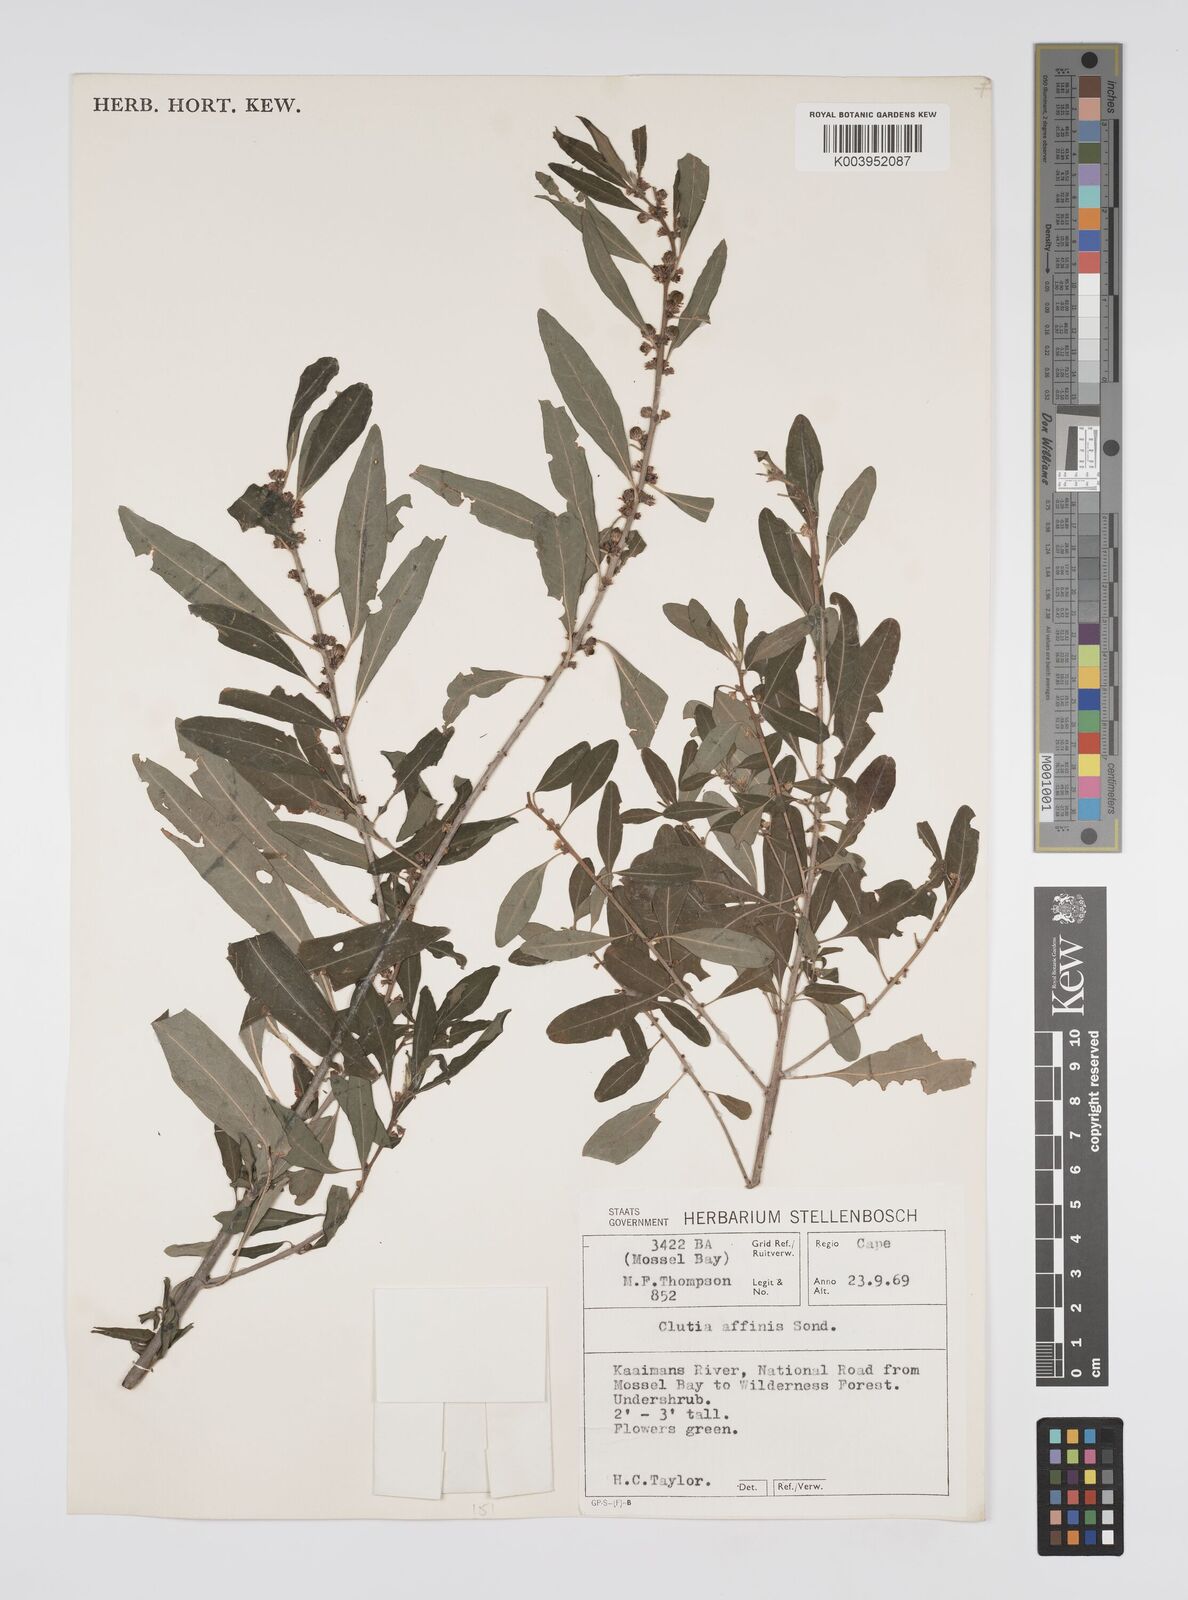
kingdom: Plantae
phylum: Tracheophyta
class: Magnoliopsida
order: Malpighiales
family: Peraceae
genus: Clutia
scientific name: Clutia affinis
